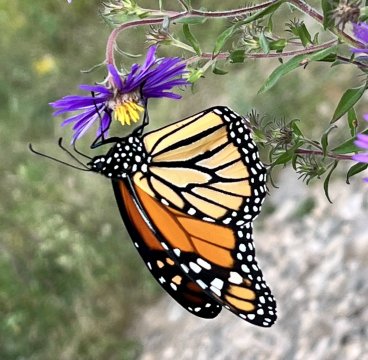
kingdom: Animalia
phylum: Arthropoda
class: Insecta
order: Lepidoptera
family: Nymphalidae
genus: Danaus
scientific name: Danaus plexippus
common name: Monarch
